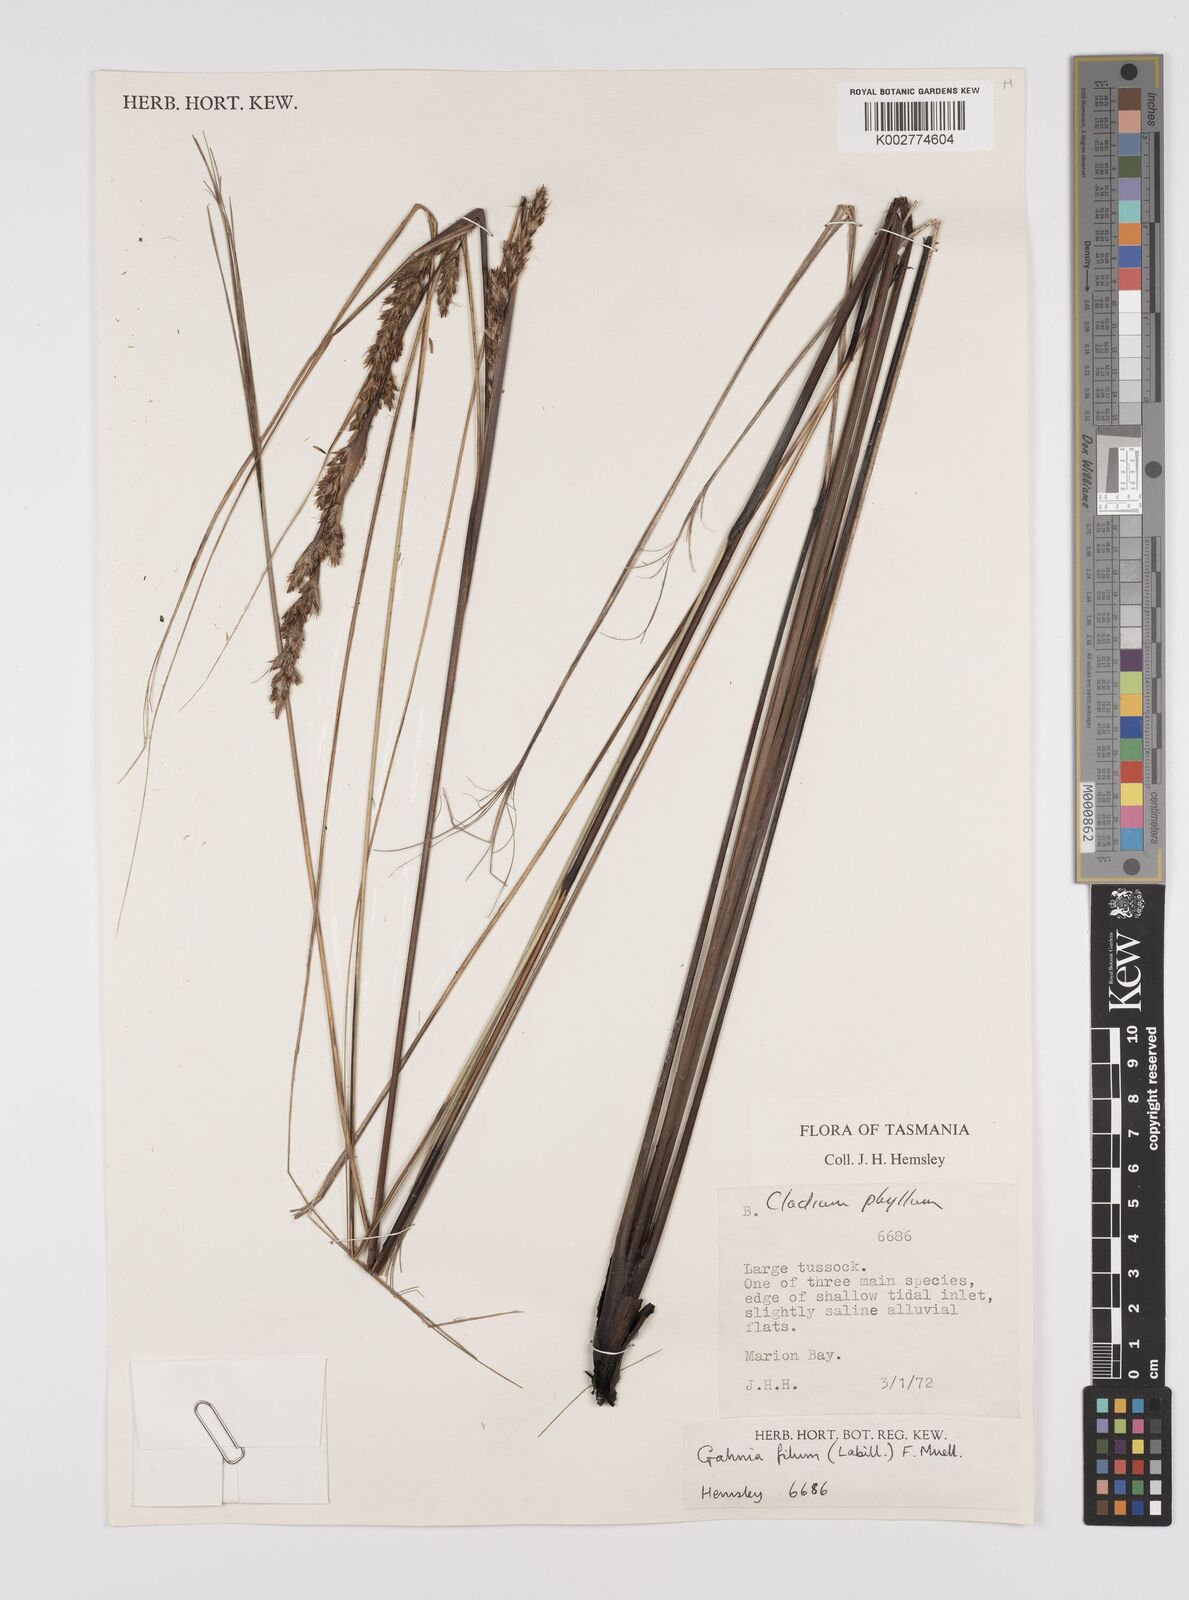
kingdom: Plantae
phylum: Tracheophyta
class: Liliopsida
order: Poales
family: Cyperaceae
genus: Gahnia
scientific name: Gahnia filum
